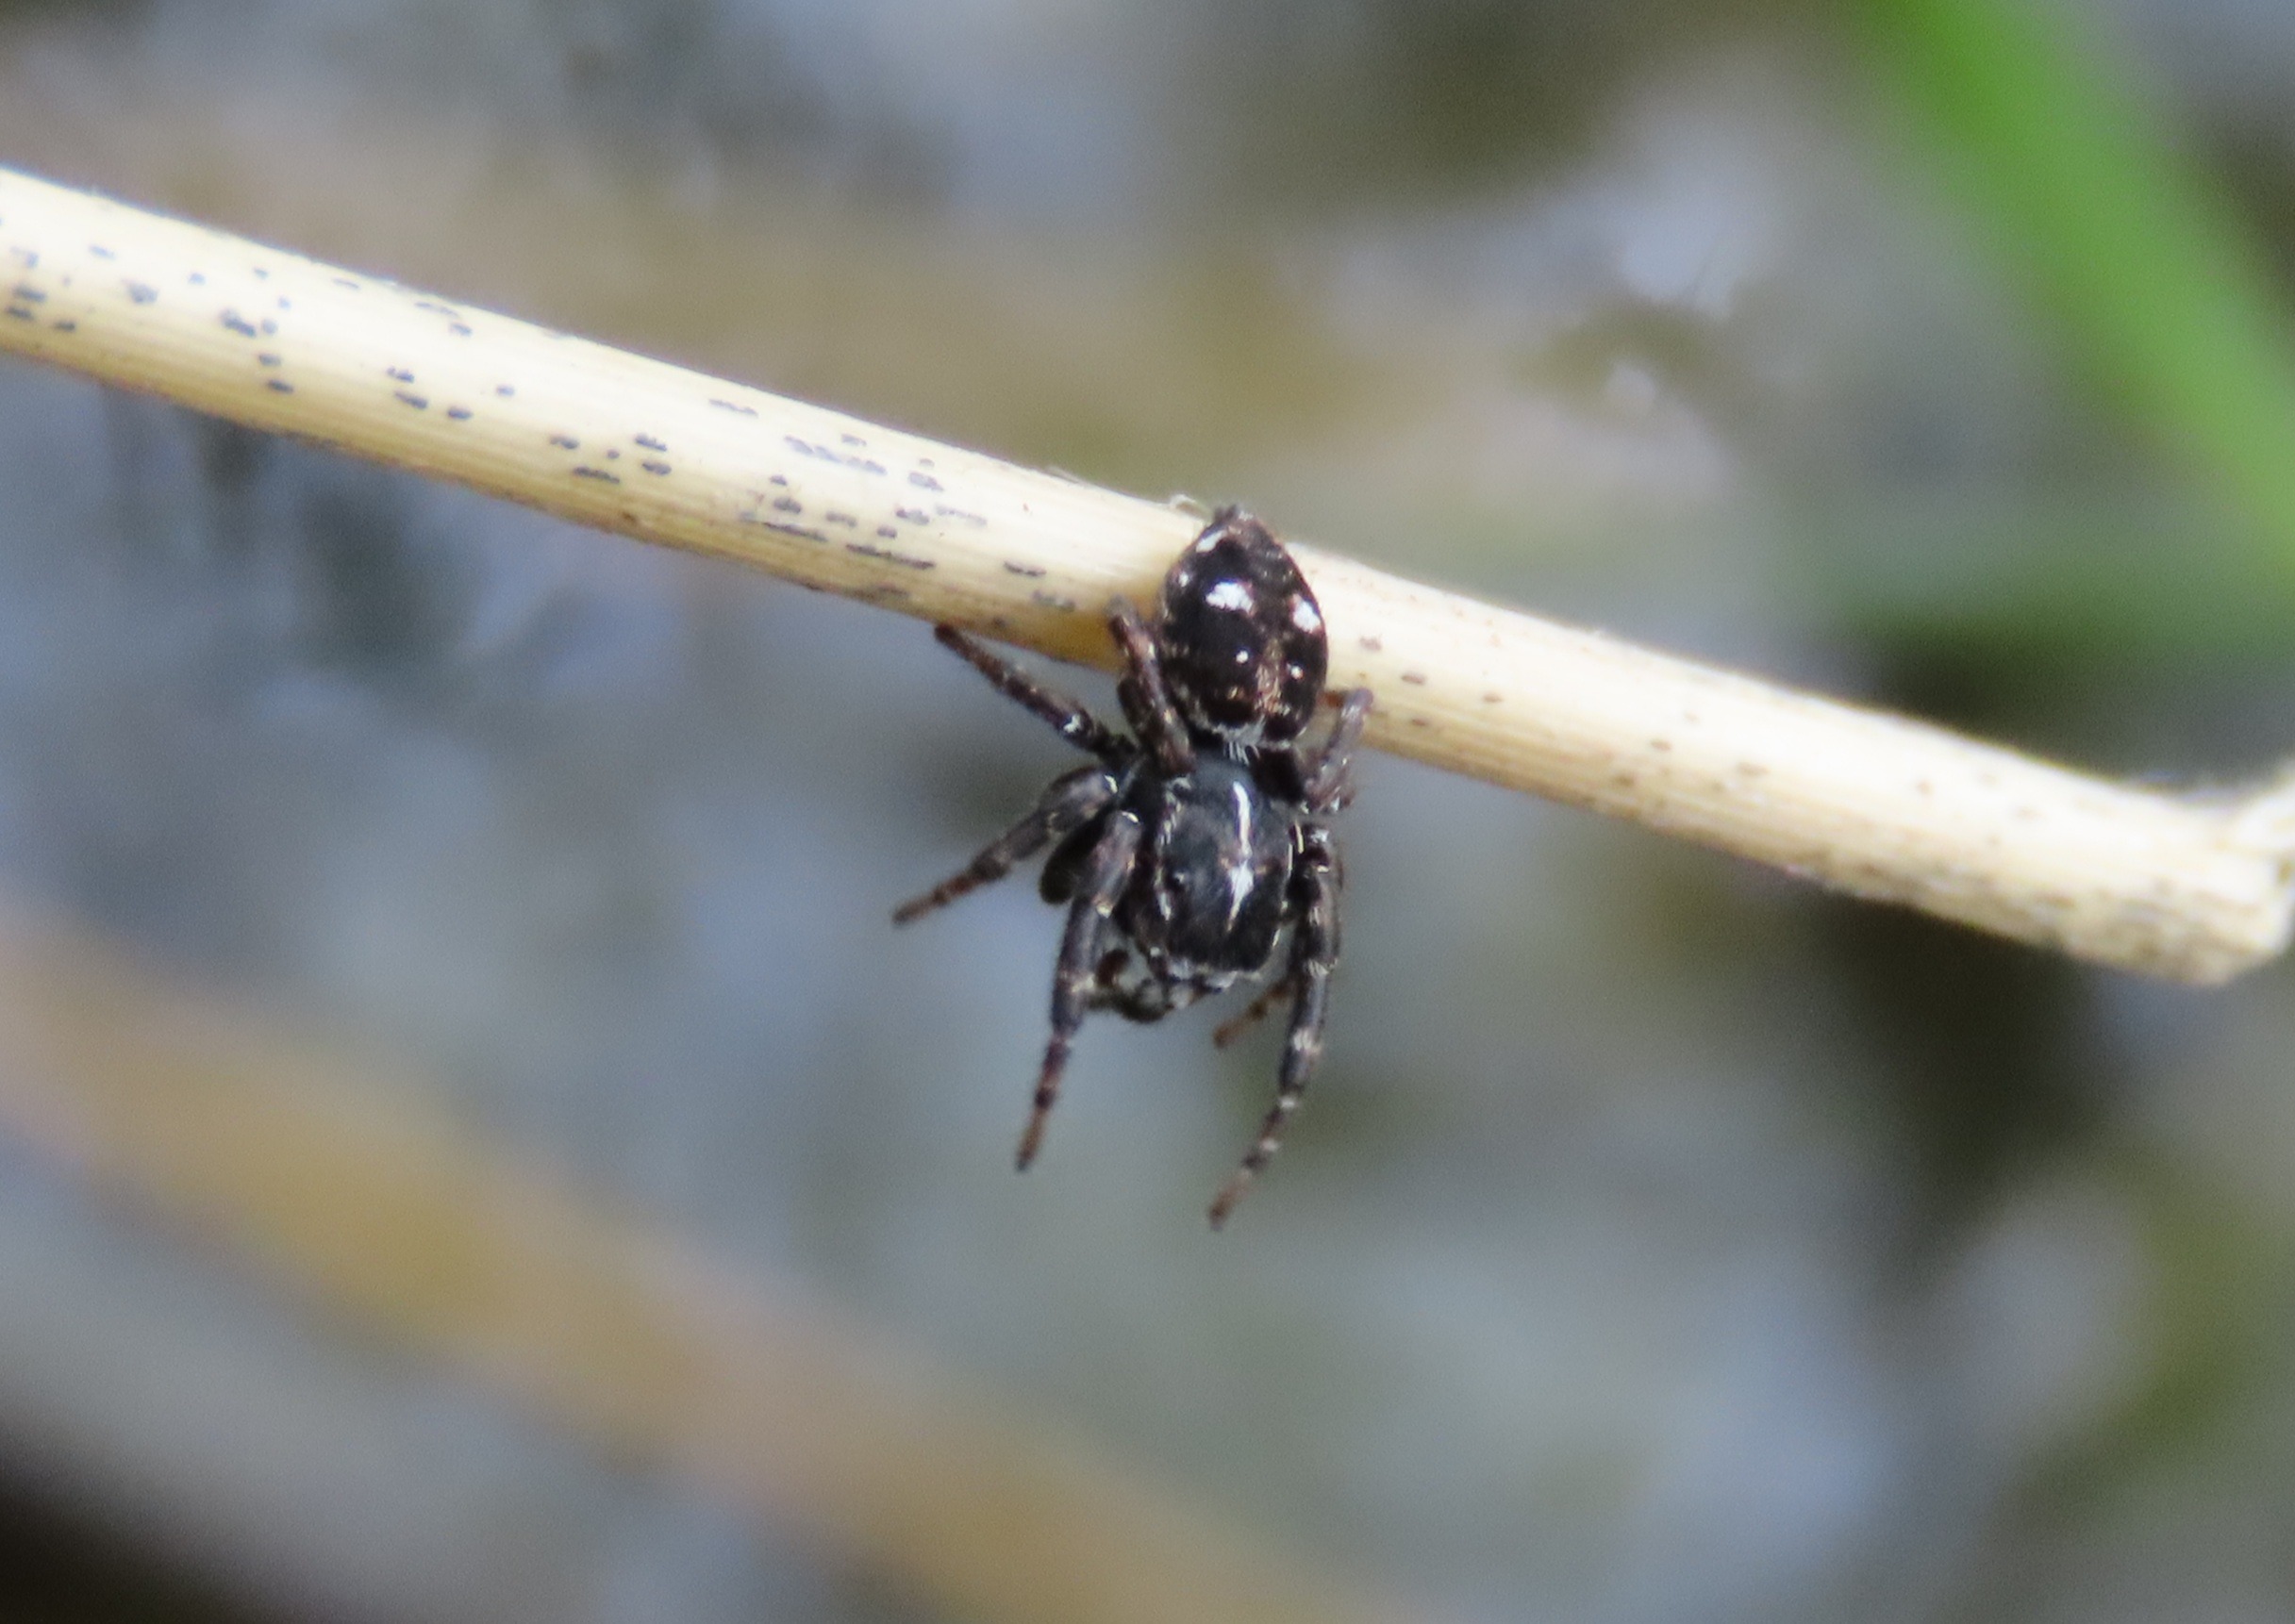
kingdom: Animalia
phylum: Arthropoda
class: Arachnida
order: Araneae
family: Salticidae
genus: Attulus
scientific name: Attulus floricola
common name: Mosespringer
